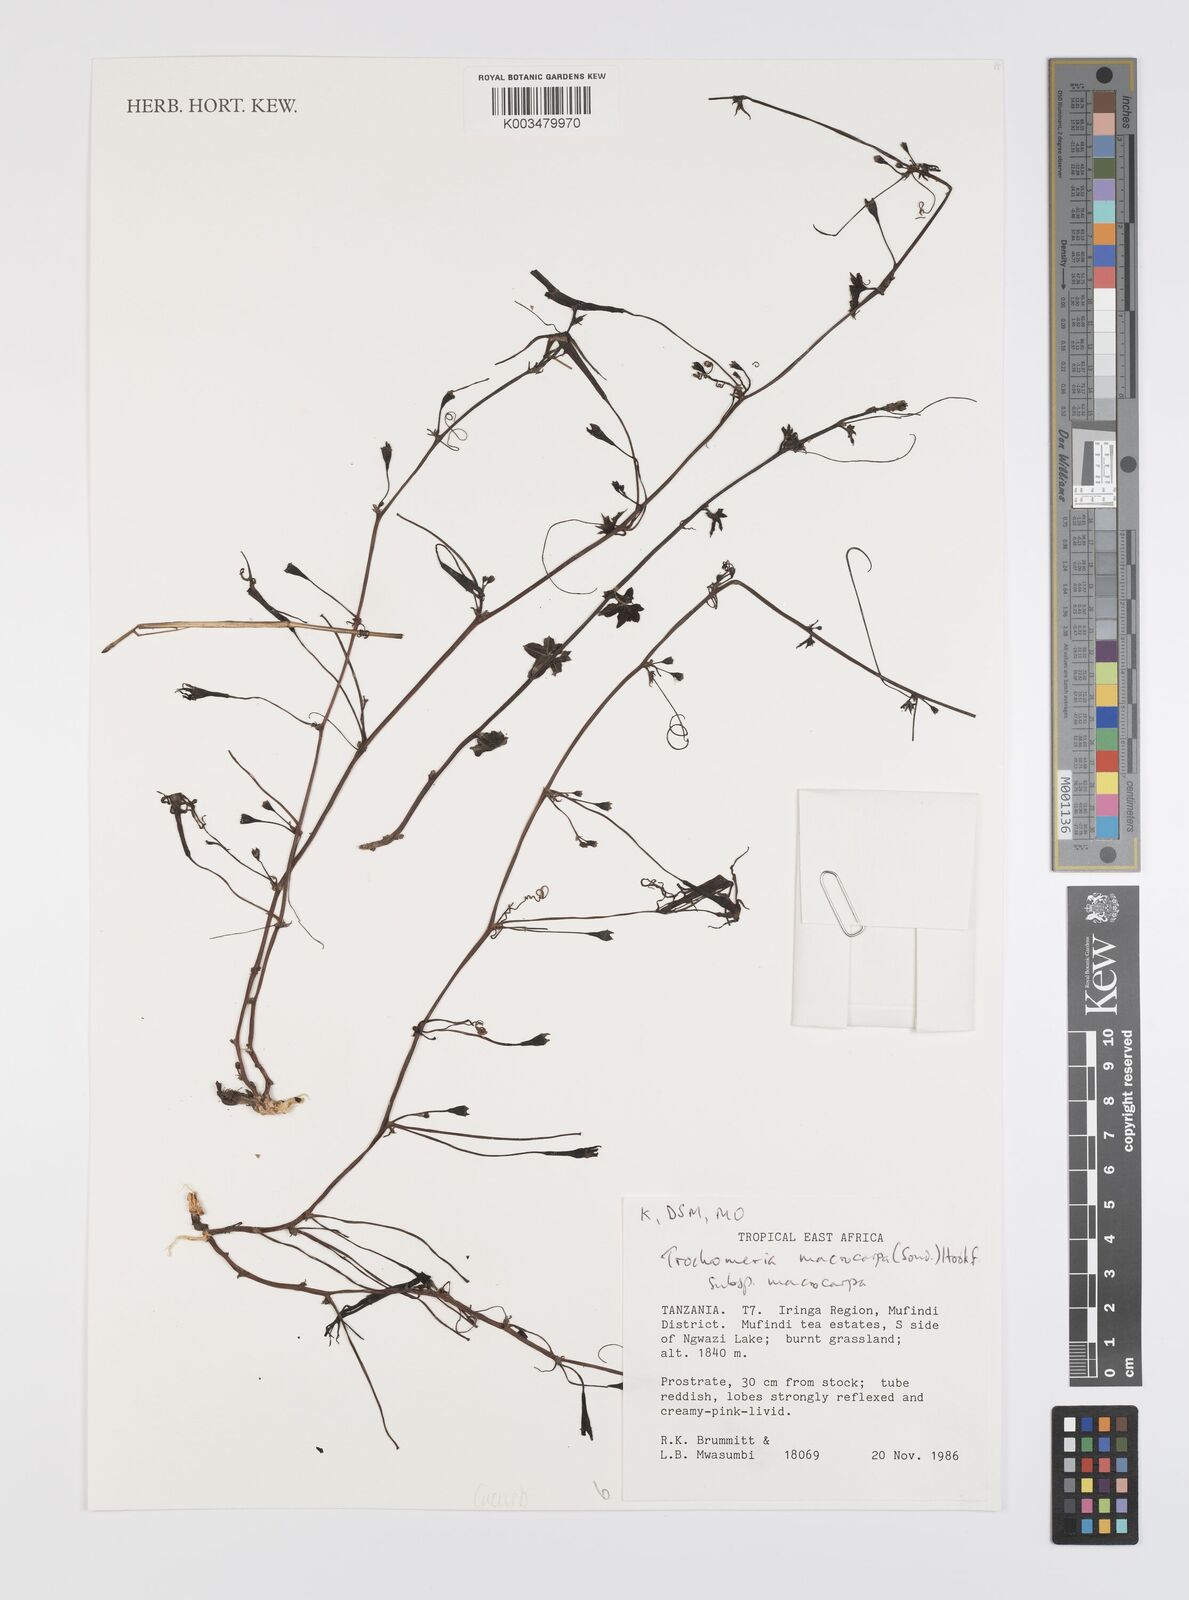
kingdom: Plantae
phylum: Tracheophyta
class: Magnoliopsida
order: Cucurbitales
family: Cucurbitaceae
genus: Trochomeria
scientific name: Trochomeria macrocarpa
